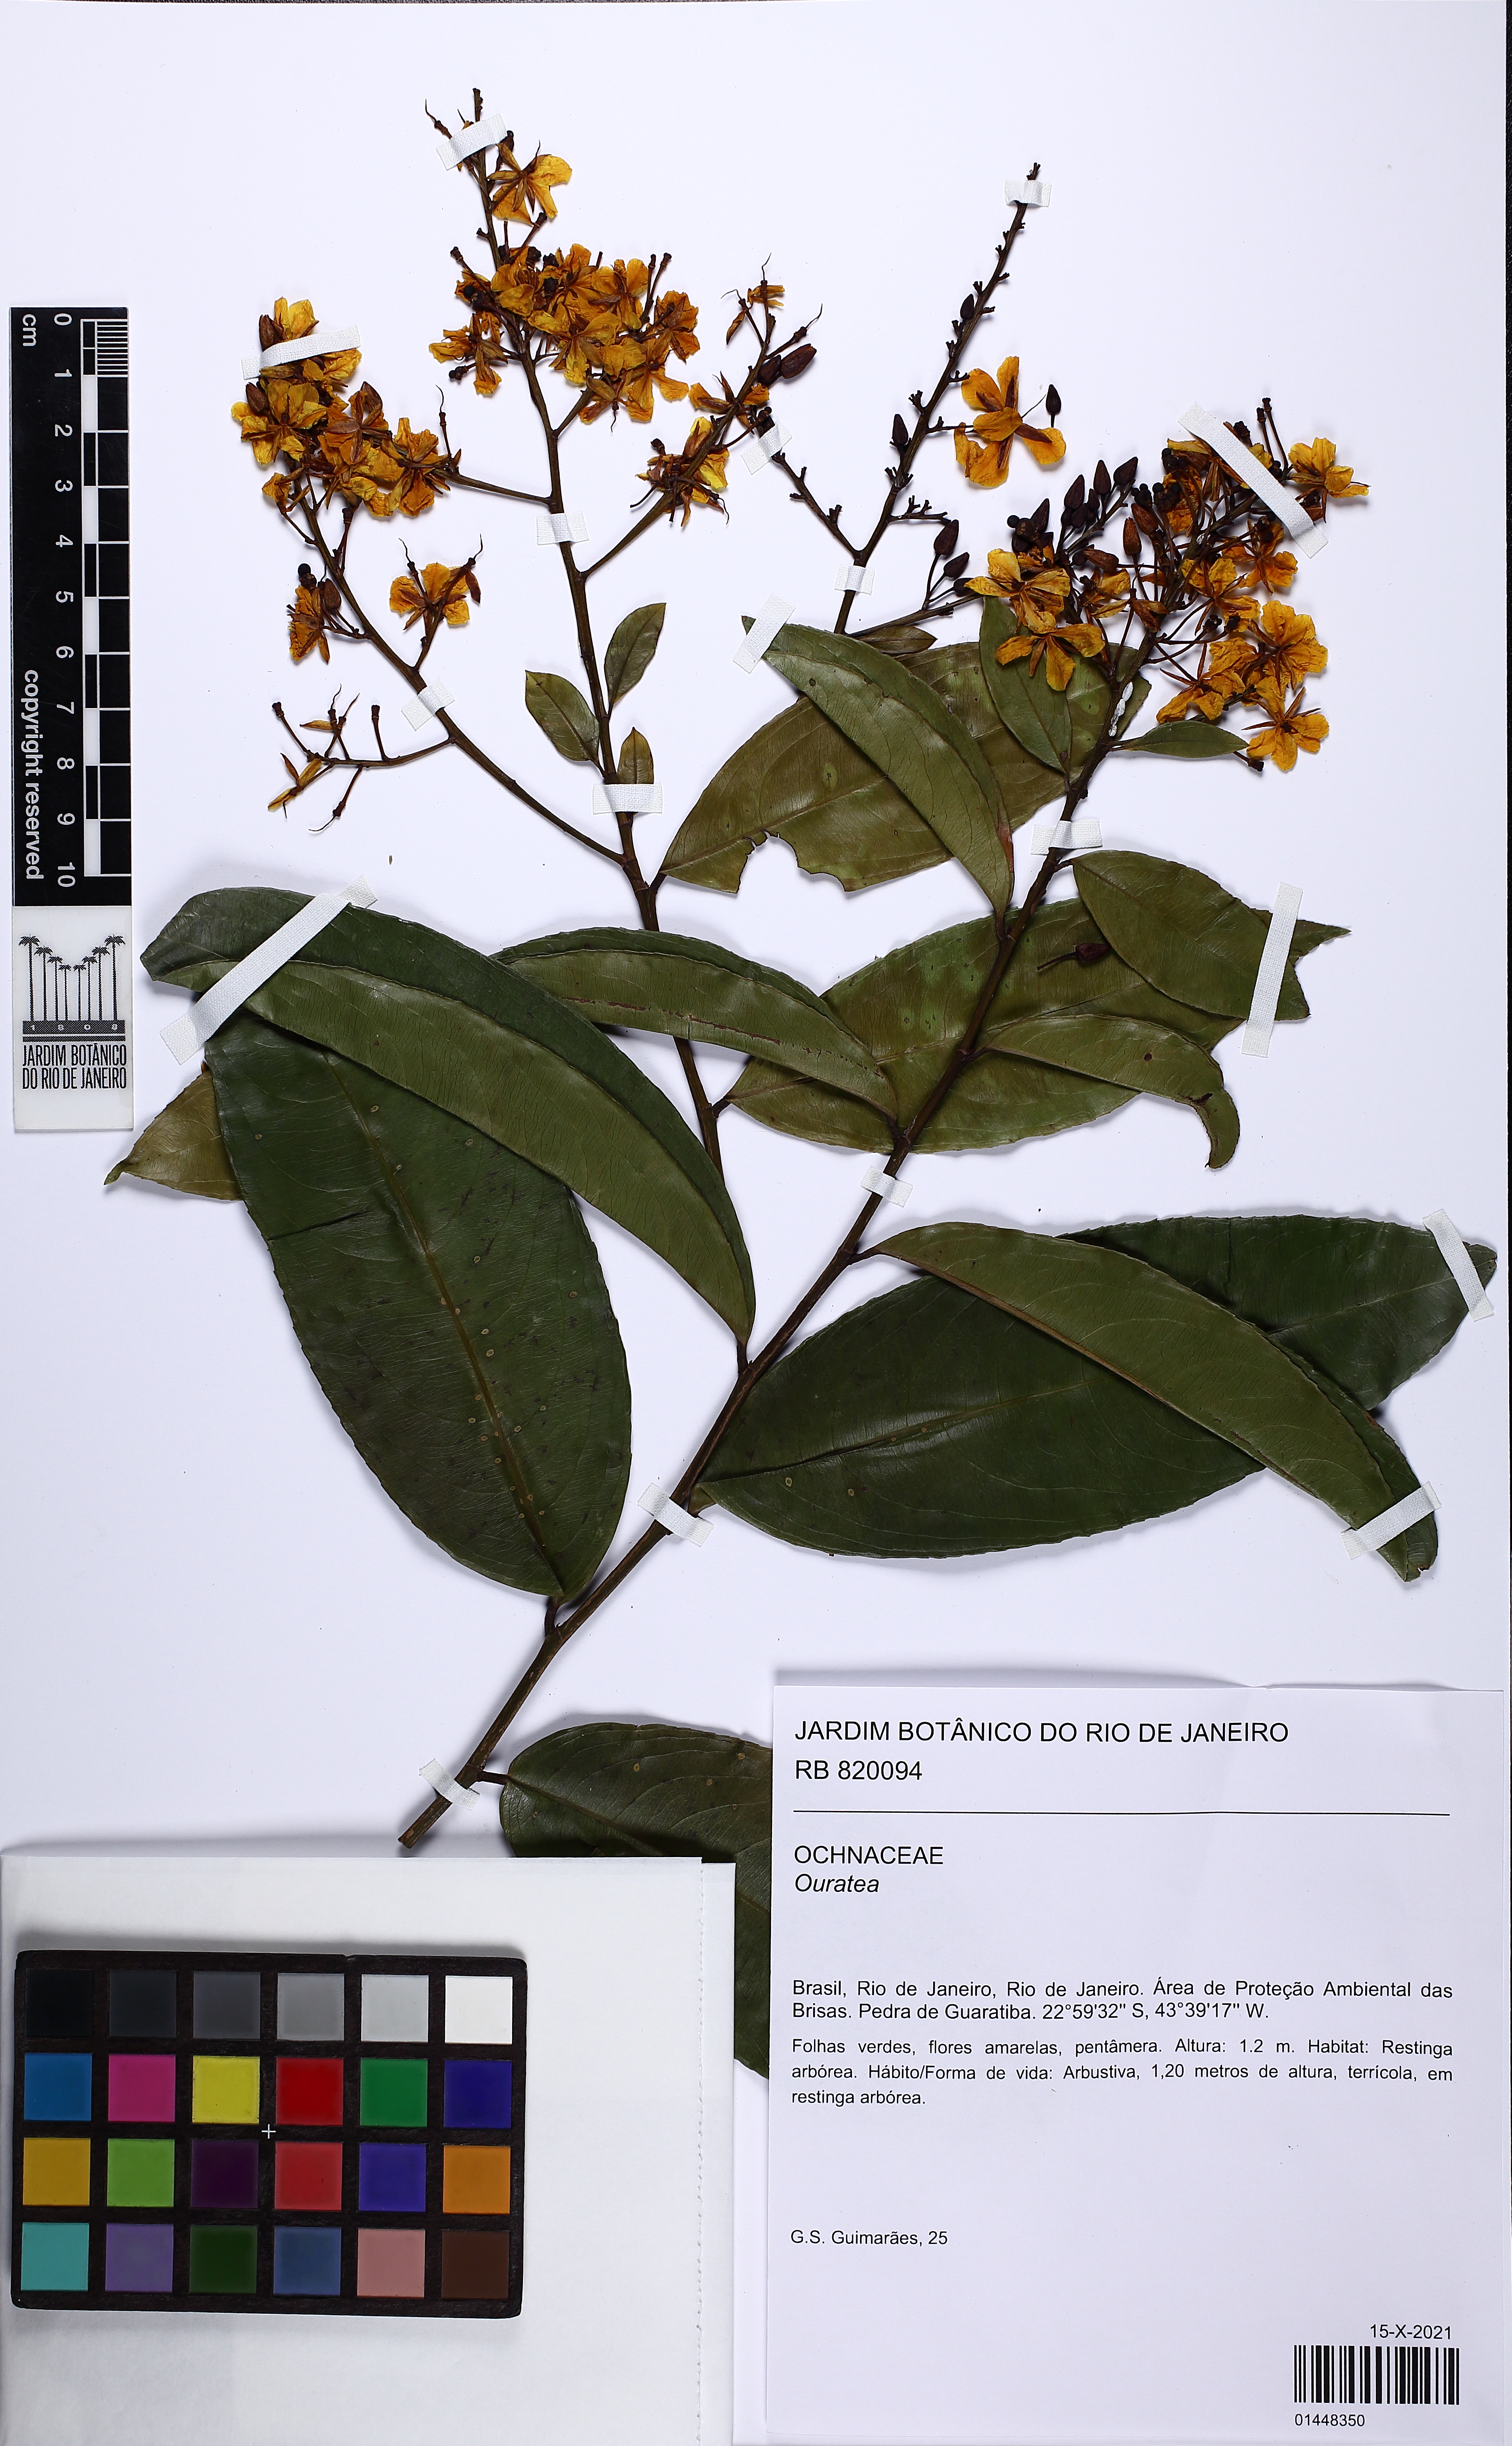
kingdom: Plantae
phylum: Tracheophyta
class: Magnoliopsida
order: Malpighiales
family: Ochnaceae
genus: Ouratea
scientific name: Ouratea
